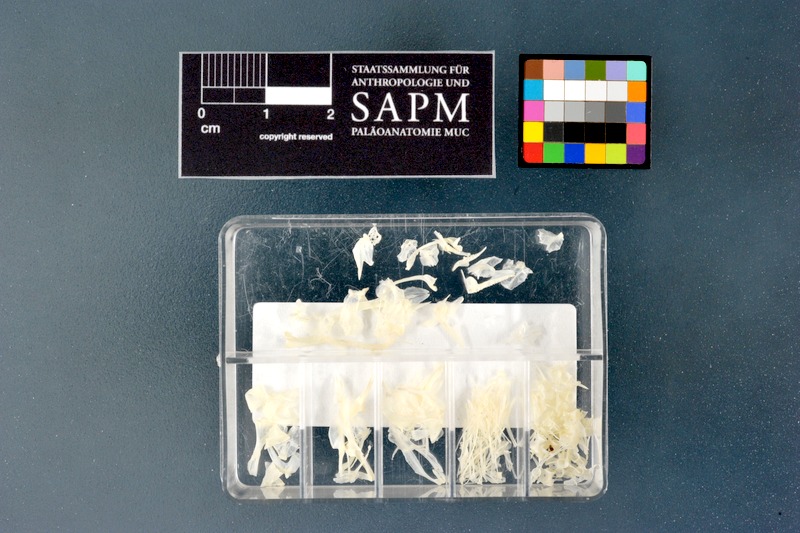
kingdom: Animalia
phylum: Chordata
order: Perciformes
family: Gobiidae
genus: Gobius
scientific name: Gobius niger
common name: Black goby
